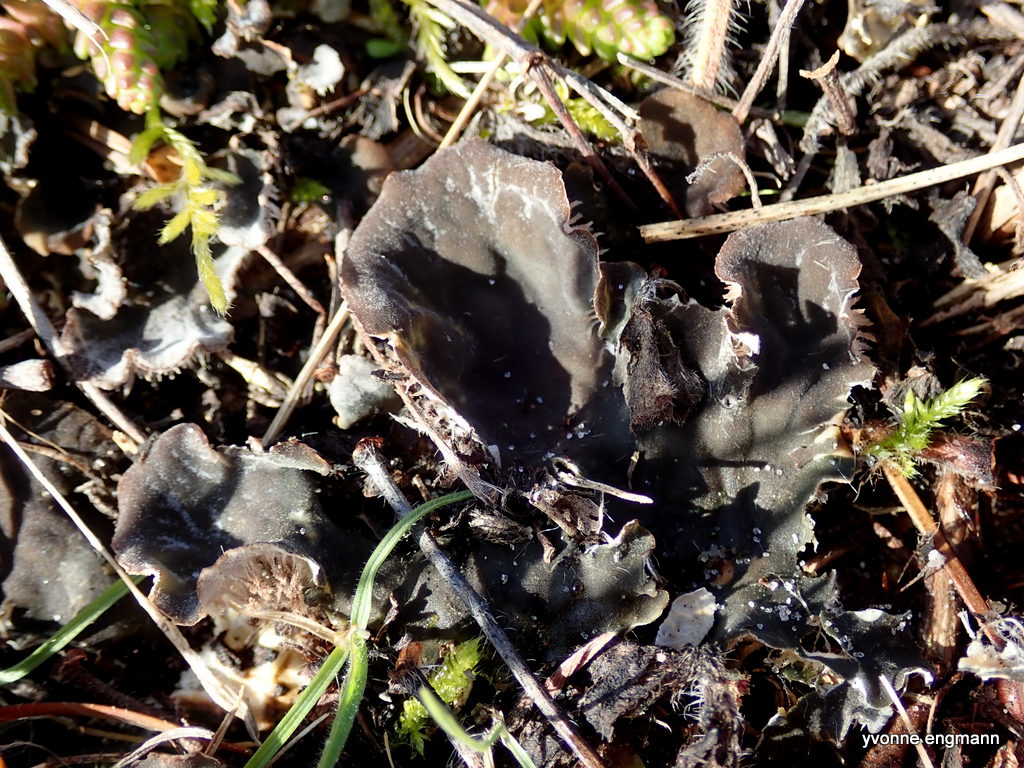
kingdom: Fungi
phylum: Ascomycota
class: Lecanoromycetes
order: Peltigerales
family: Peltigeraceae
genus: Peltigera
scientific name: Peltigera membranacea
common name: tynd skjoldlav
